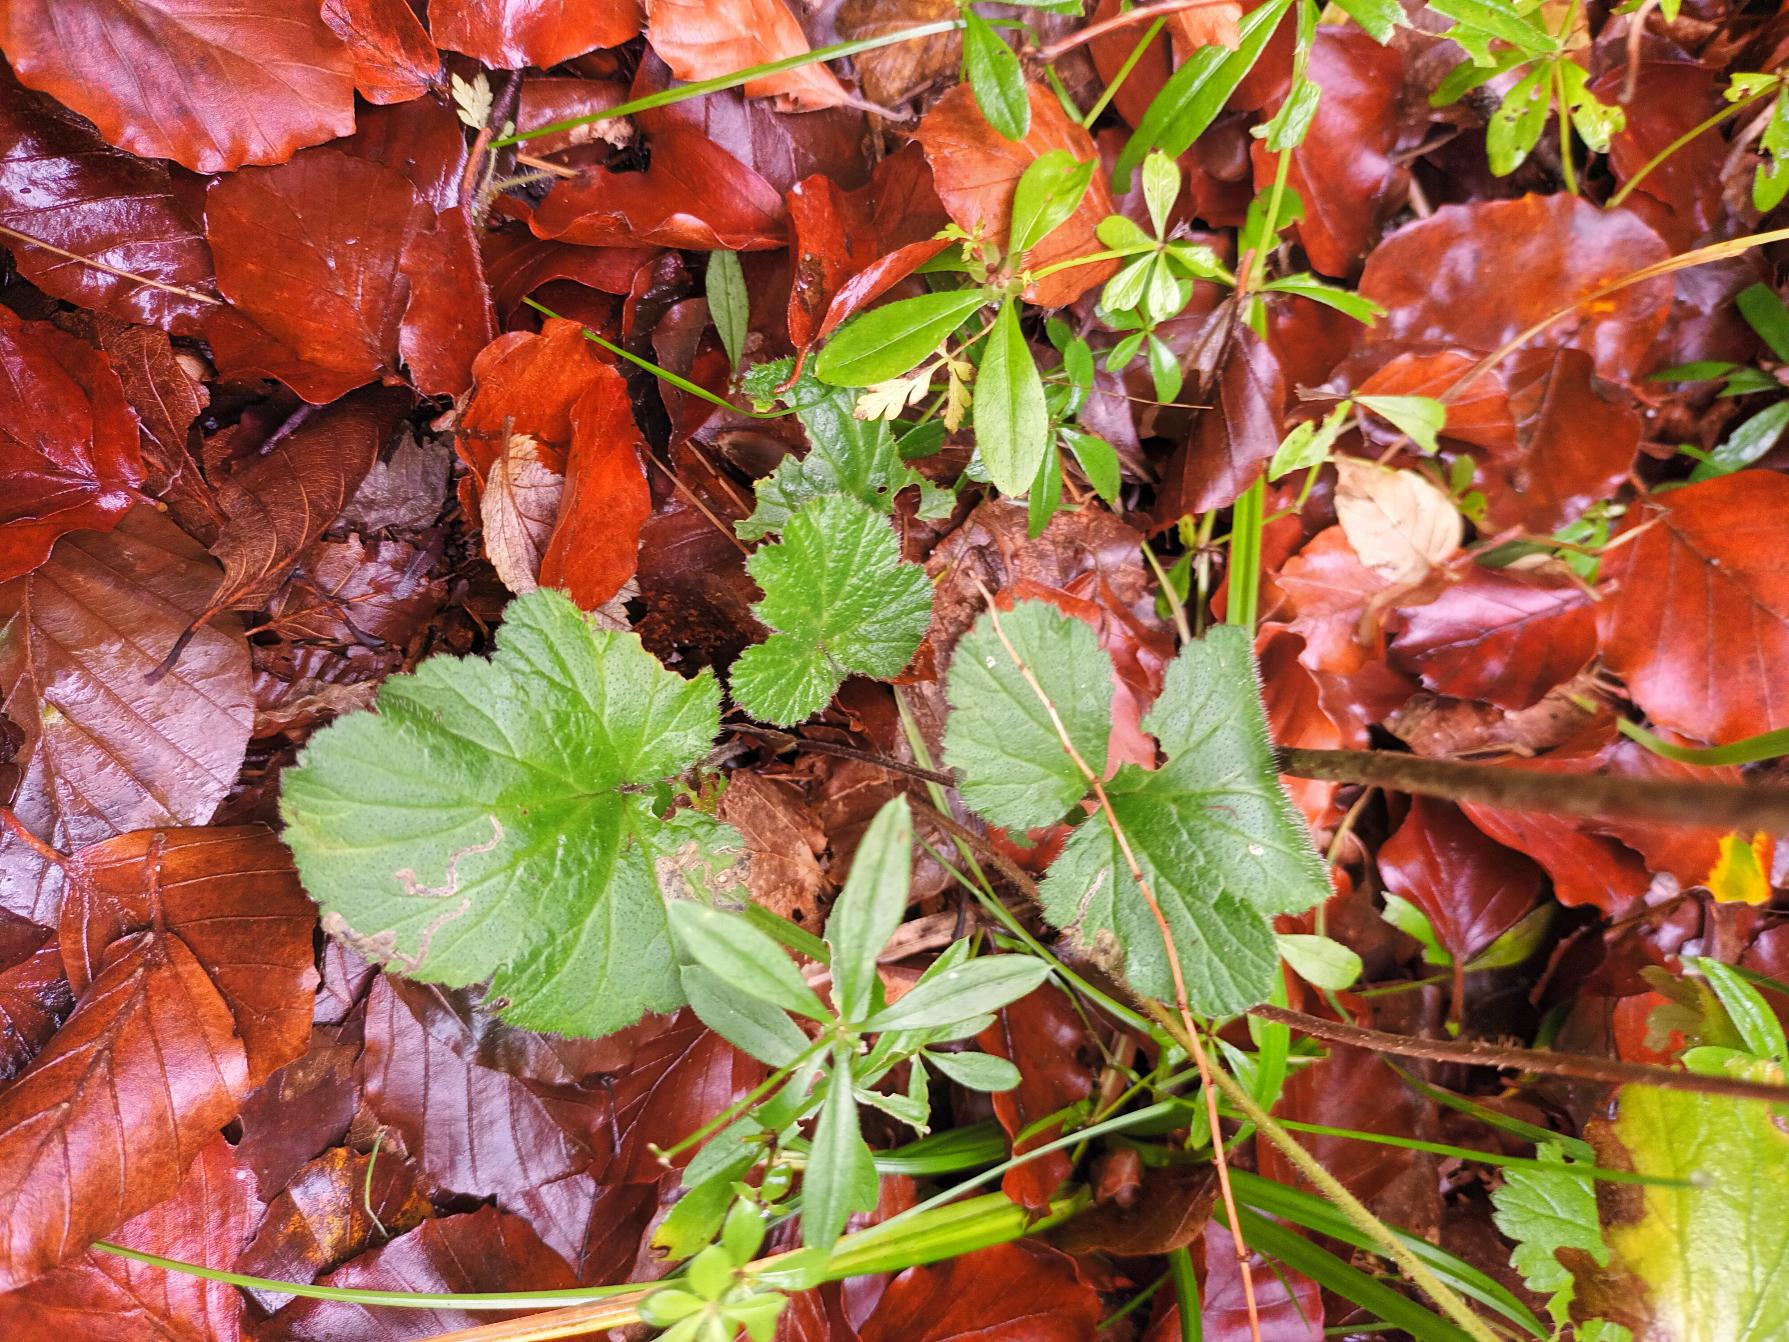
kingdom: Plantae
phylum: Tracheophyta
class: Magnoliopsida
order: Rosales
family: Rosaceae
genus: Geum
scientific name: Geum urbanum
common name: Feber-nellikerod
